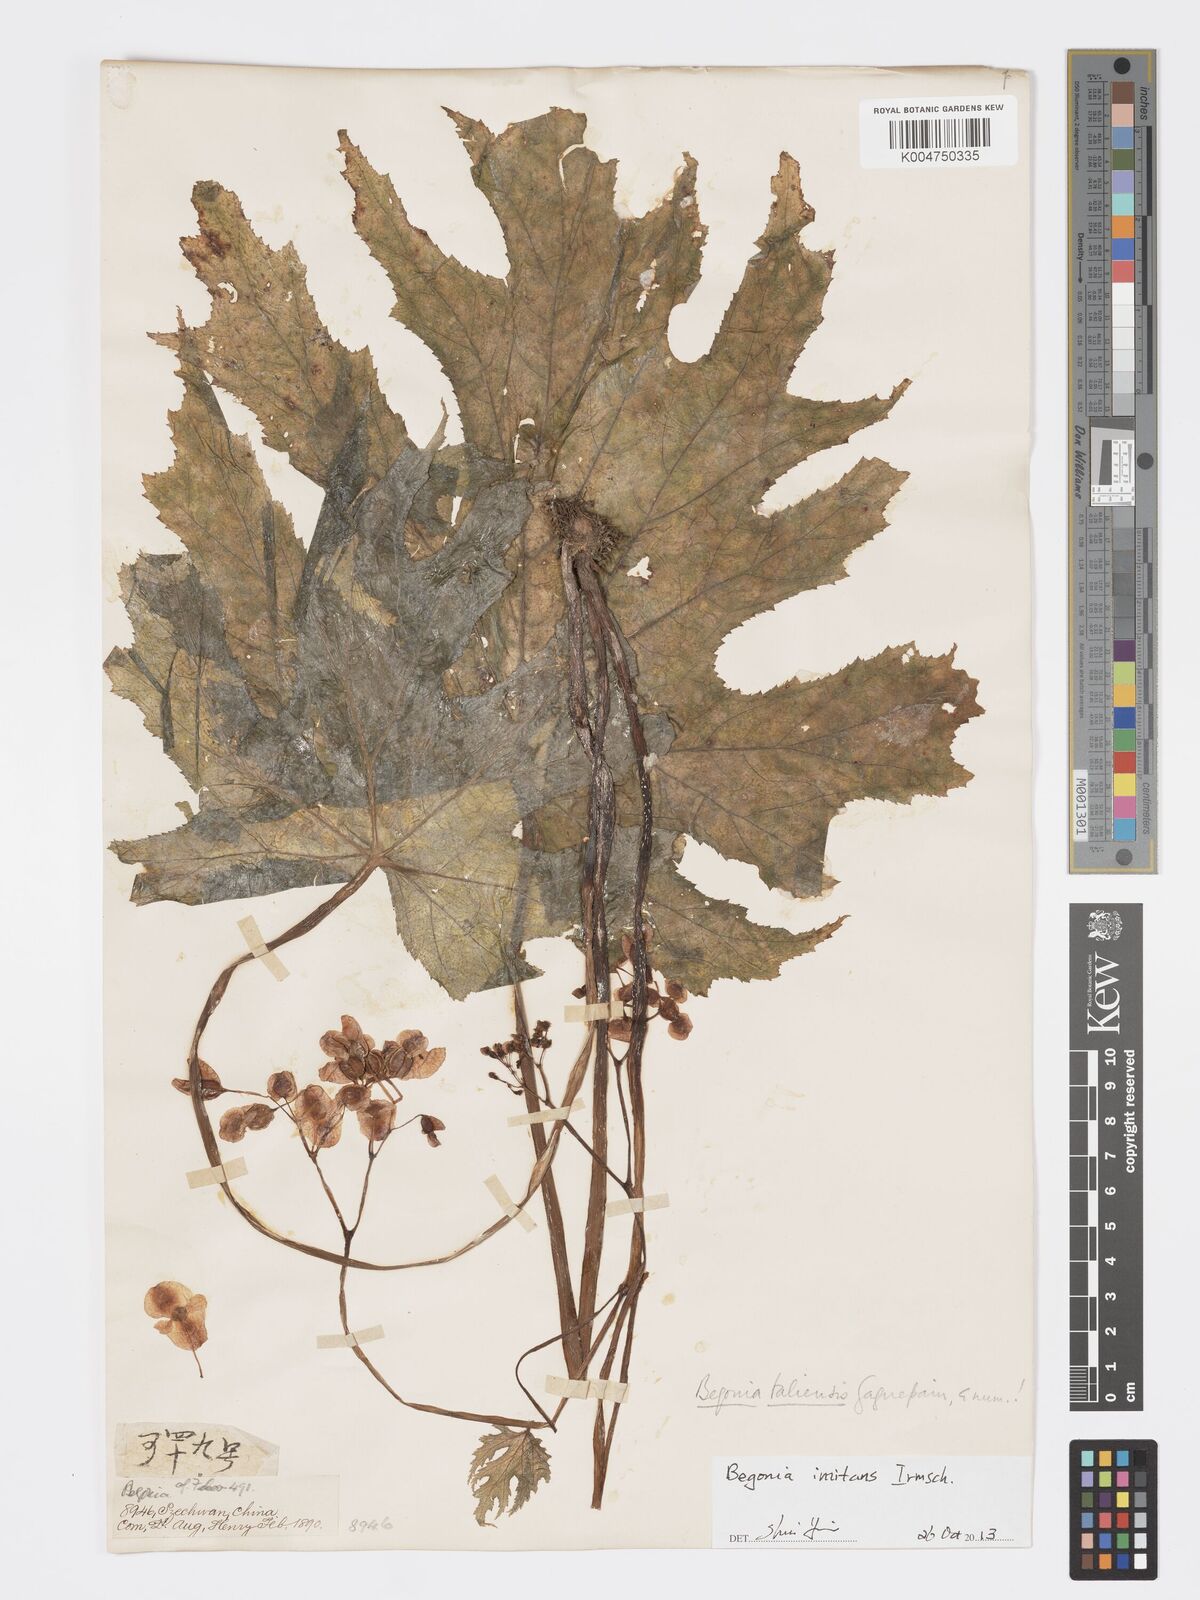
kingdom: Plantae
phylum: Tracheophyta
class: Magnoliopsida
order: Cucurbitales
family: Begoniaceae
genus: Begonia
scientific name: Begonia imitans
